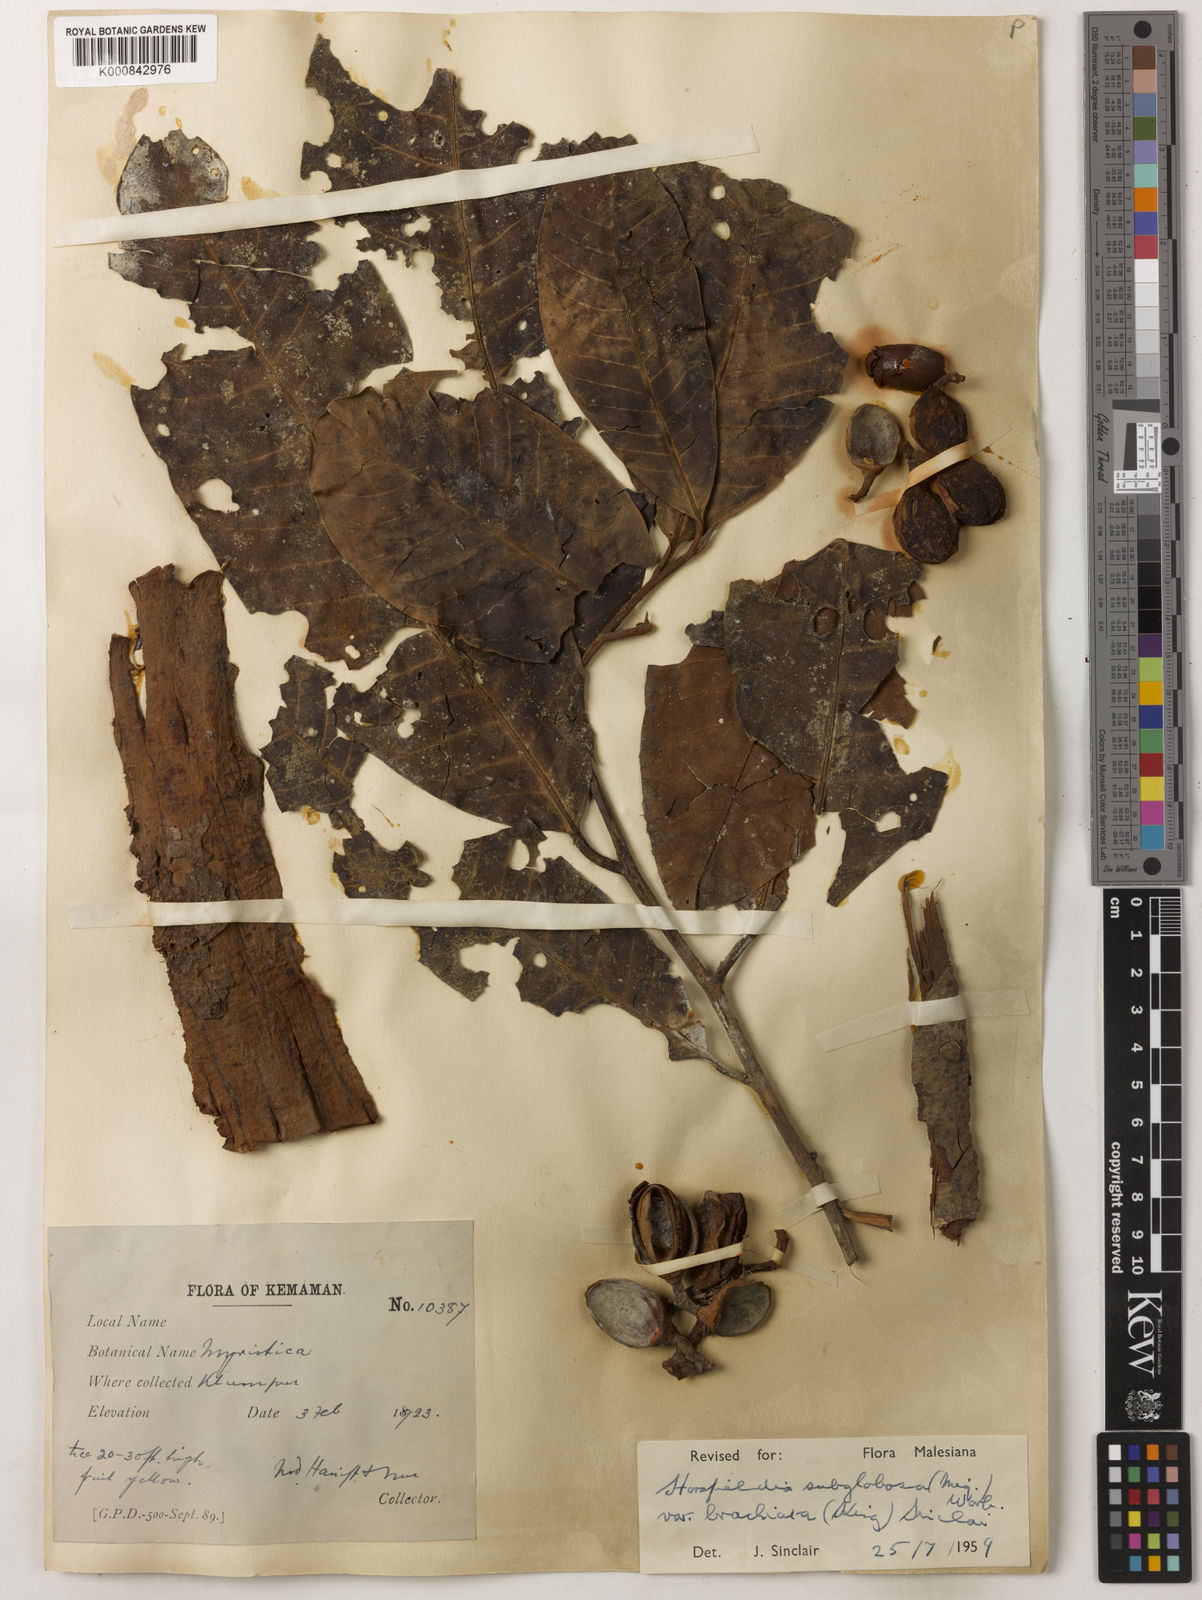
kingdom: Plantae
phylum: Tracheophyta
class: Magnoliopsida
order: Magnoliales
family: Myristicaceae
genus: Horsfieldia
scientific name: Horsfieldia brachiata
